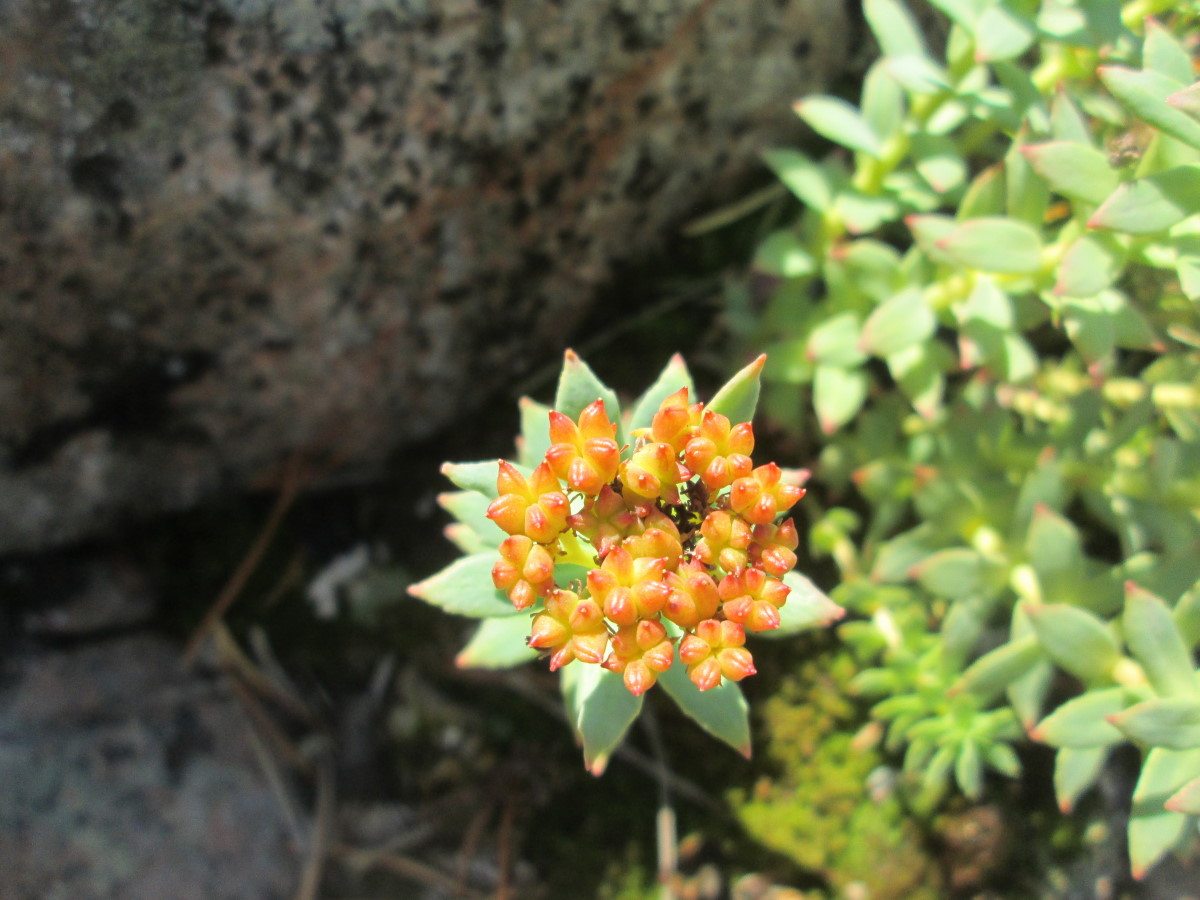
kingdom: Plantae
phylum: Tracheophyta
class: Magnoliopsida
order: Saxifragales
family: Crassulaceae
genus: Rhodiola
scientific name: Rhodiola rosea
